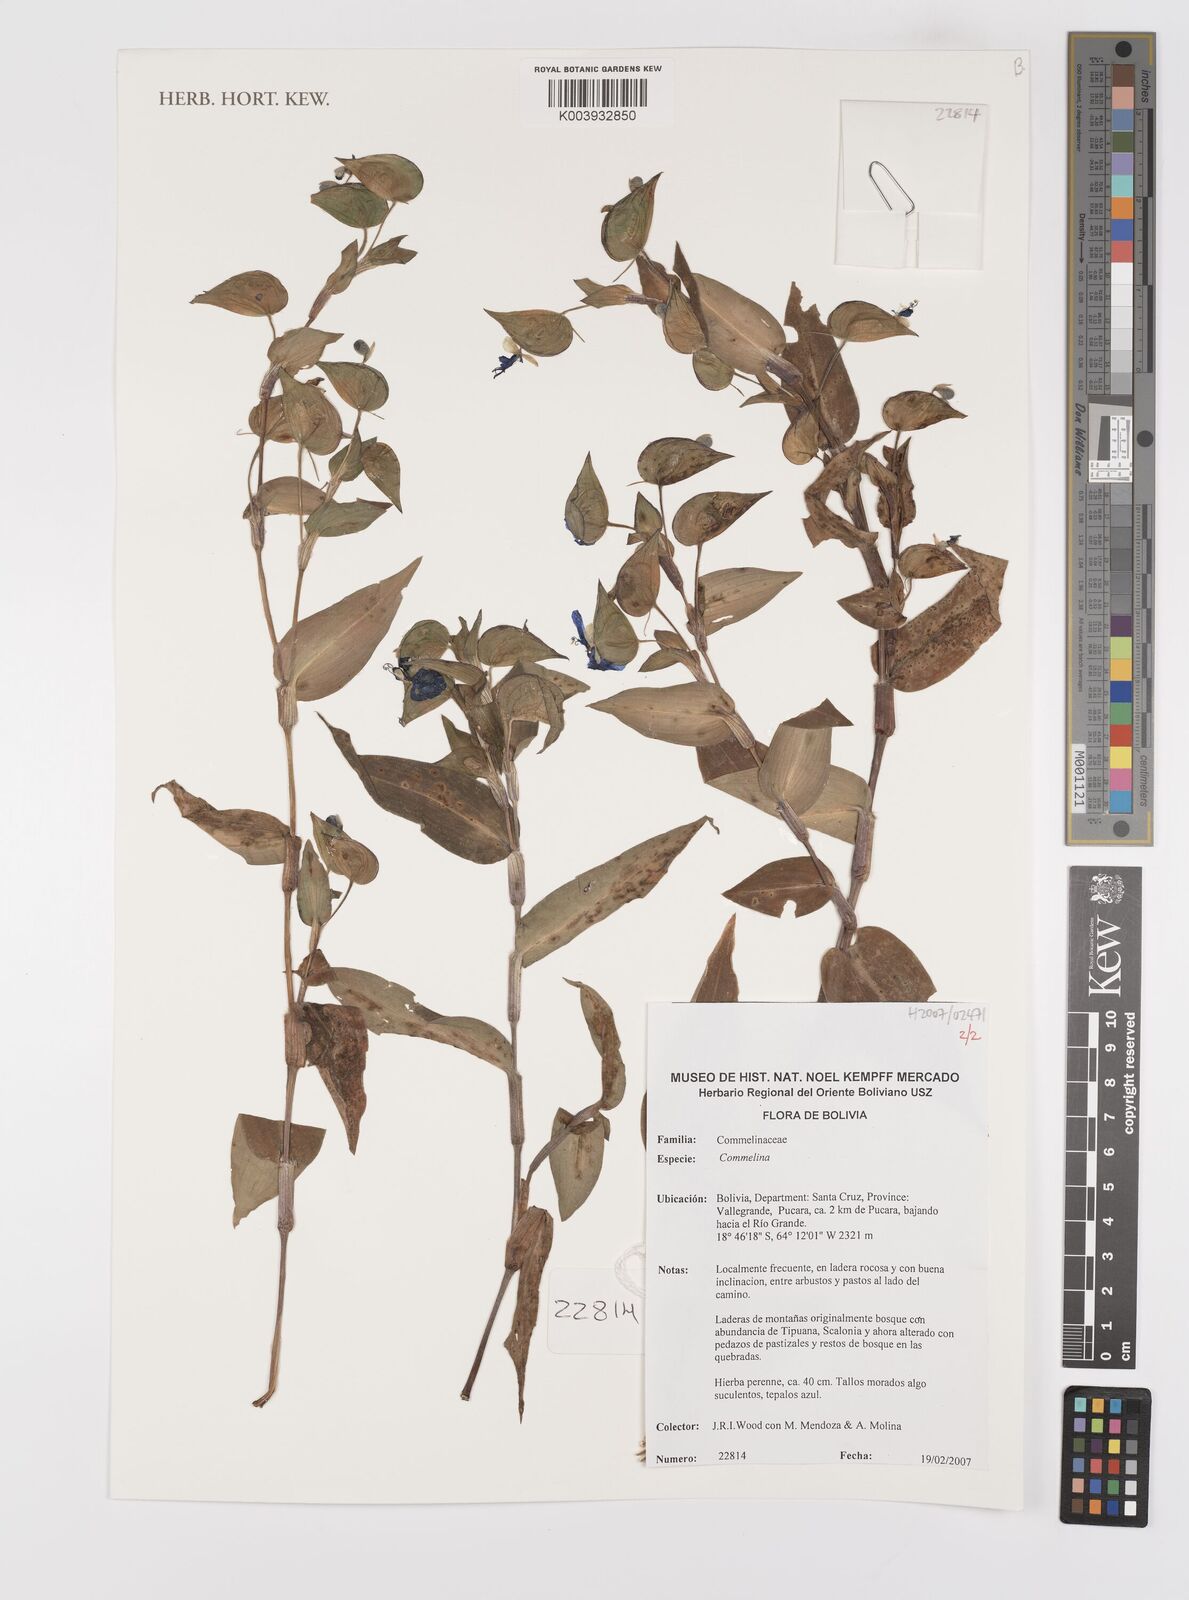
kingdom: Plantae
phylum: Tracheophyta
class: Liliopsida
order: Commelinales
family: Commelinaceae
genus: Commelina
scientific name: Commelina
